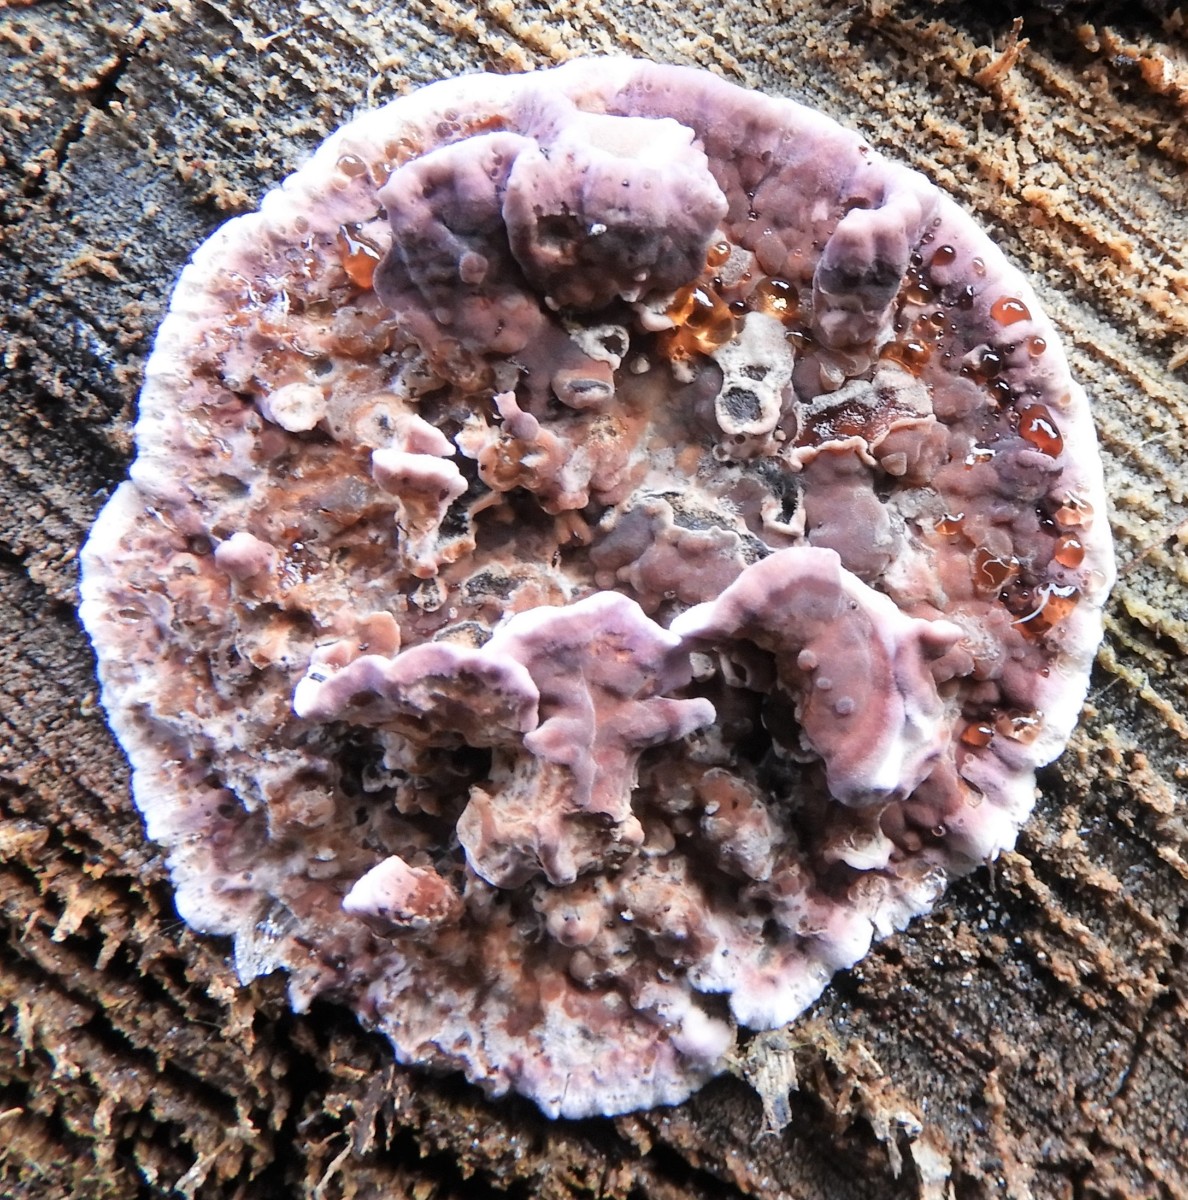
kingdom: Fungi
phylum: Basidiomycota
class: Agaricomycetes
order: Agaricales
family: Cyphellaceae
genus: Chondrostereum
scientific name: Chondrostereum purpureum
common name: purpurlædersvamp
